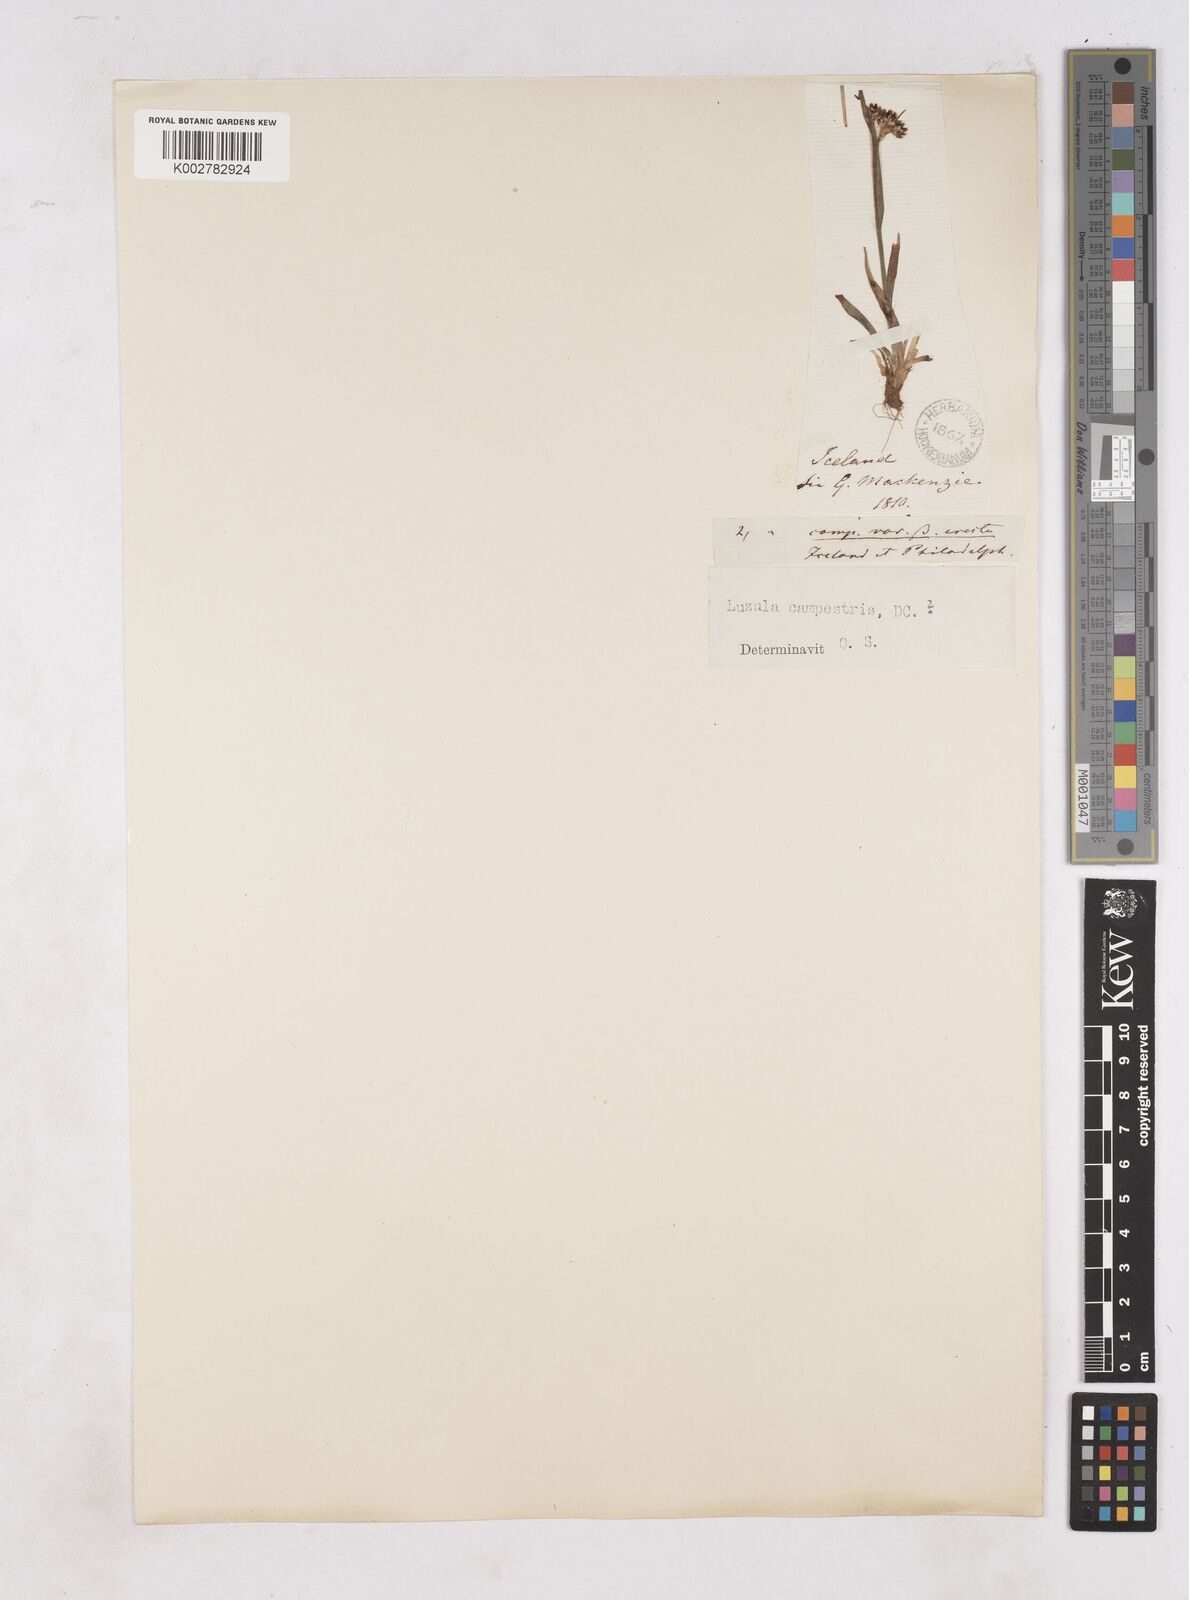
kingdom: Plantae
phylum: Tracheophyta
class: Liliopsida
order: Poales
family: Juncaceae
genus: Luzula
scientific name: Luzula campestris
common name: Field wood-rush
